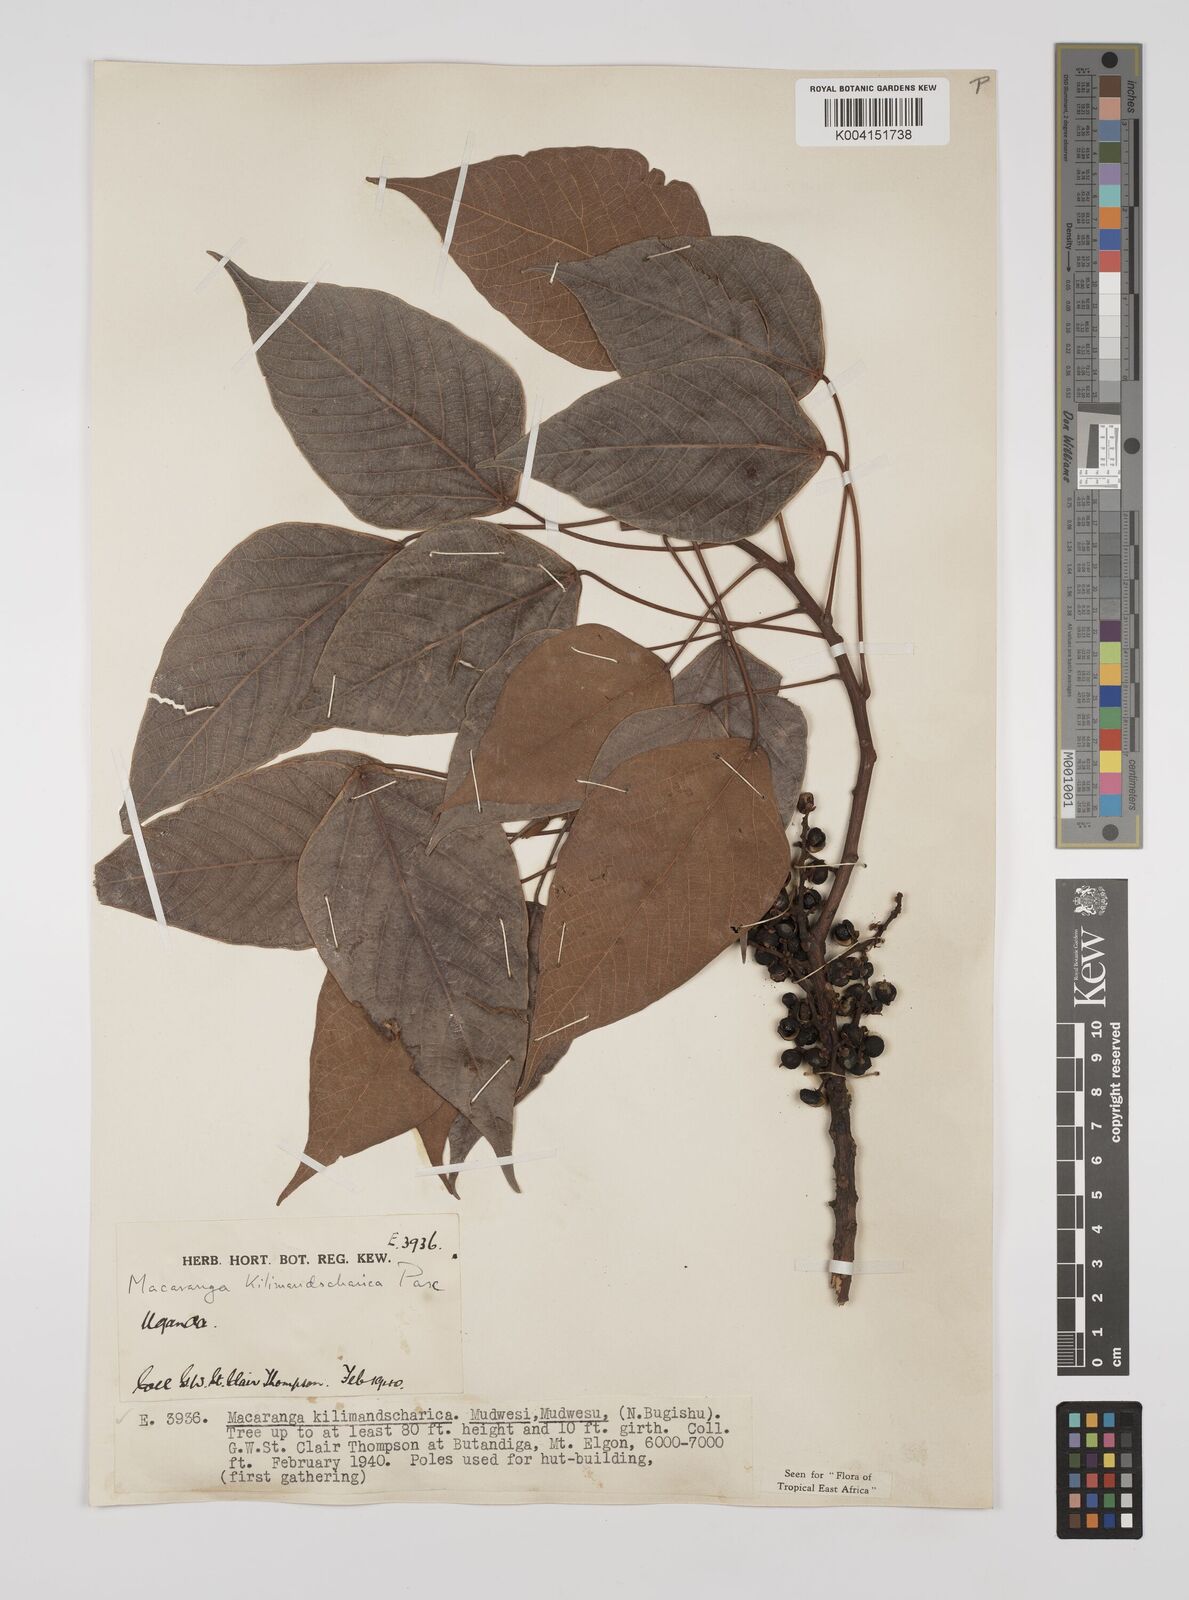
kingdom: Plantae
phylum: Tracheophyta
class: Magnoliopsida
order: Malpighiales
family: Euphorbiaceae
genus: Macaranga
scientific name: Macaranga kilimandscharica
